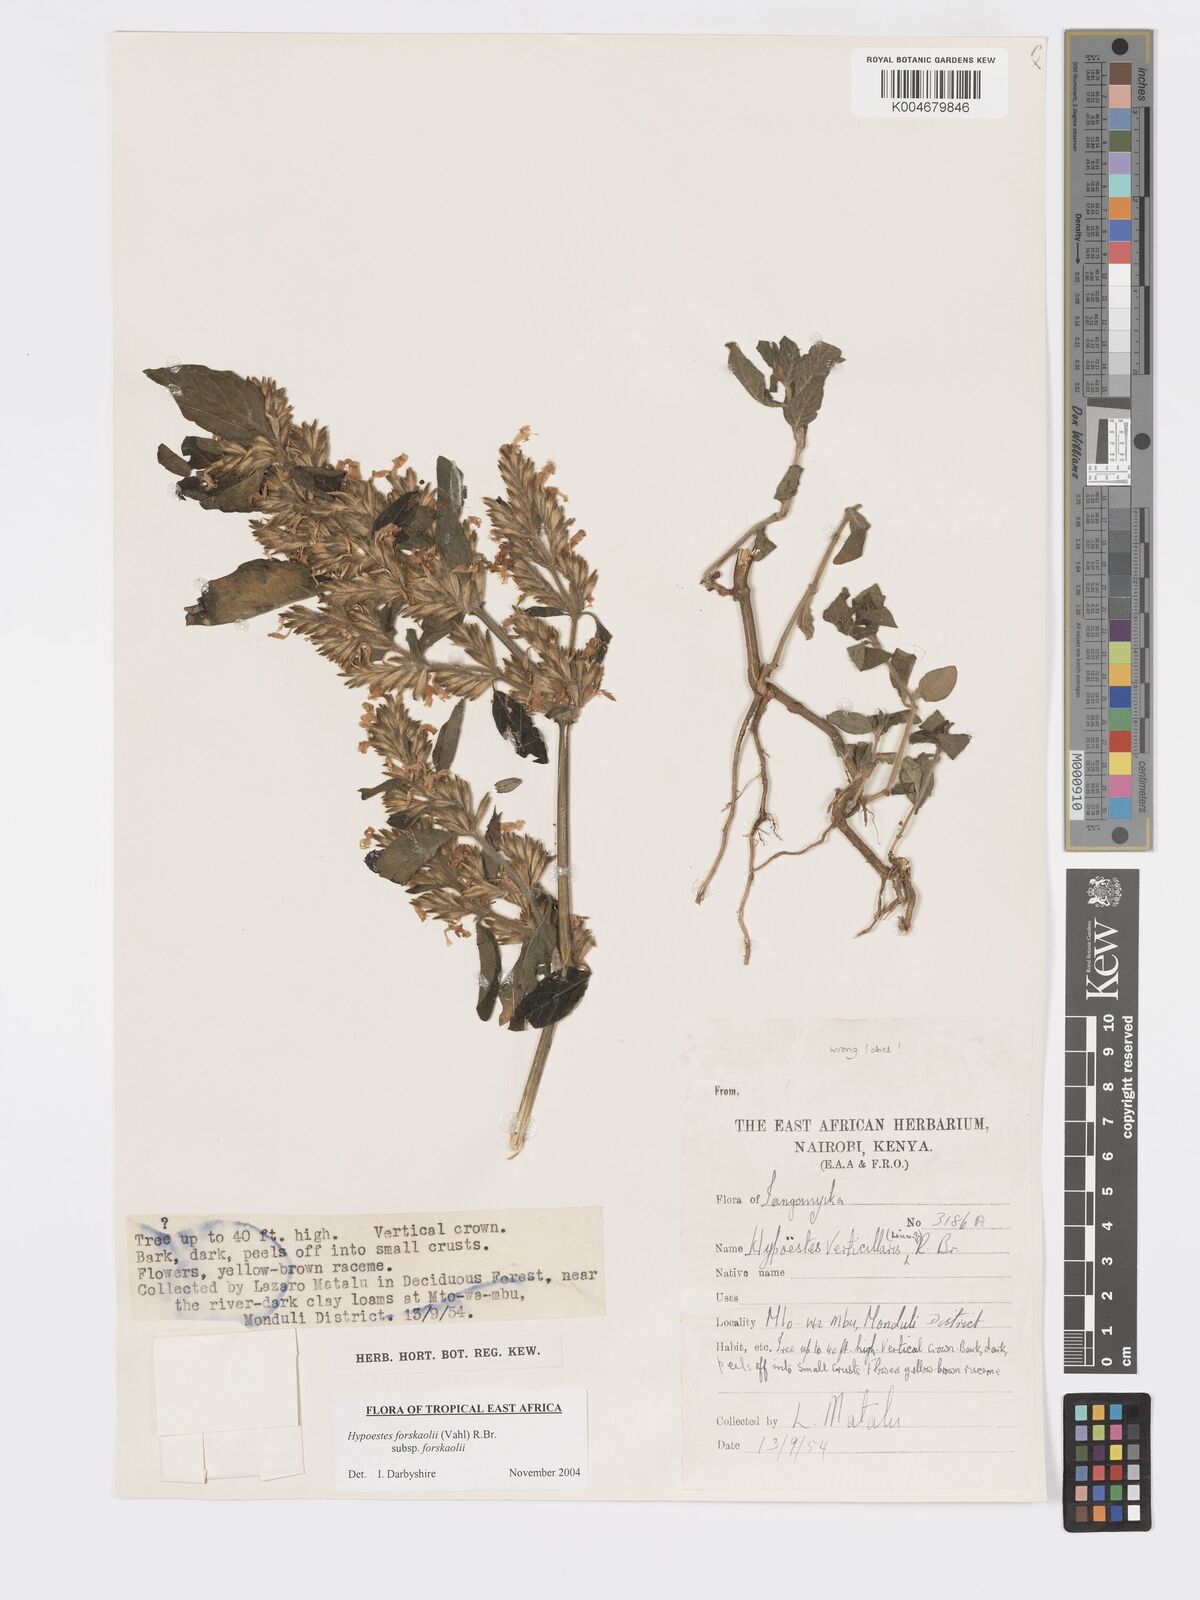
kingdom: Plantae
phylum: Tracheophyta
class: Magnoliopsida
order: Lamiales
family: Acanthaceae
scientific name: Acanthaceae
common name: Acanthaceae
